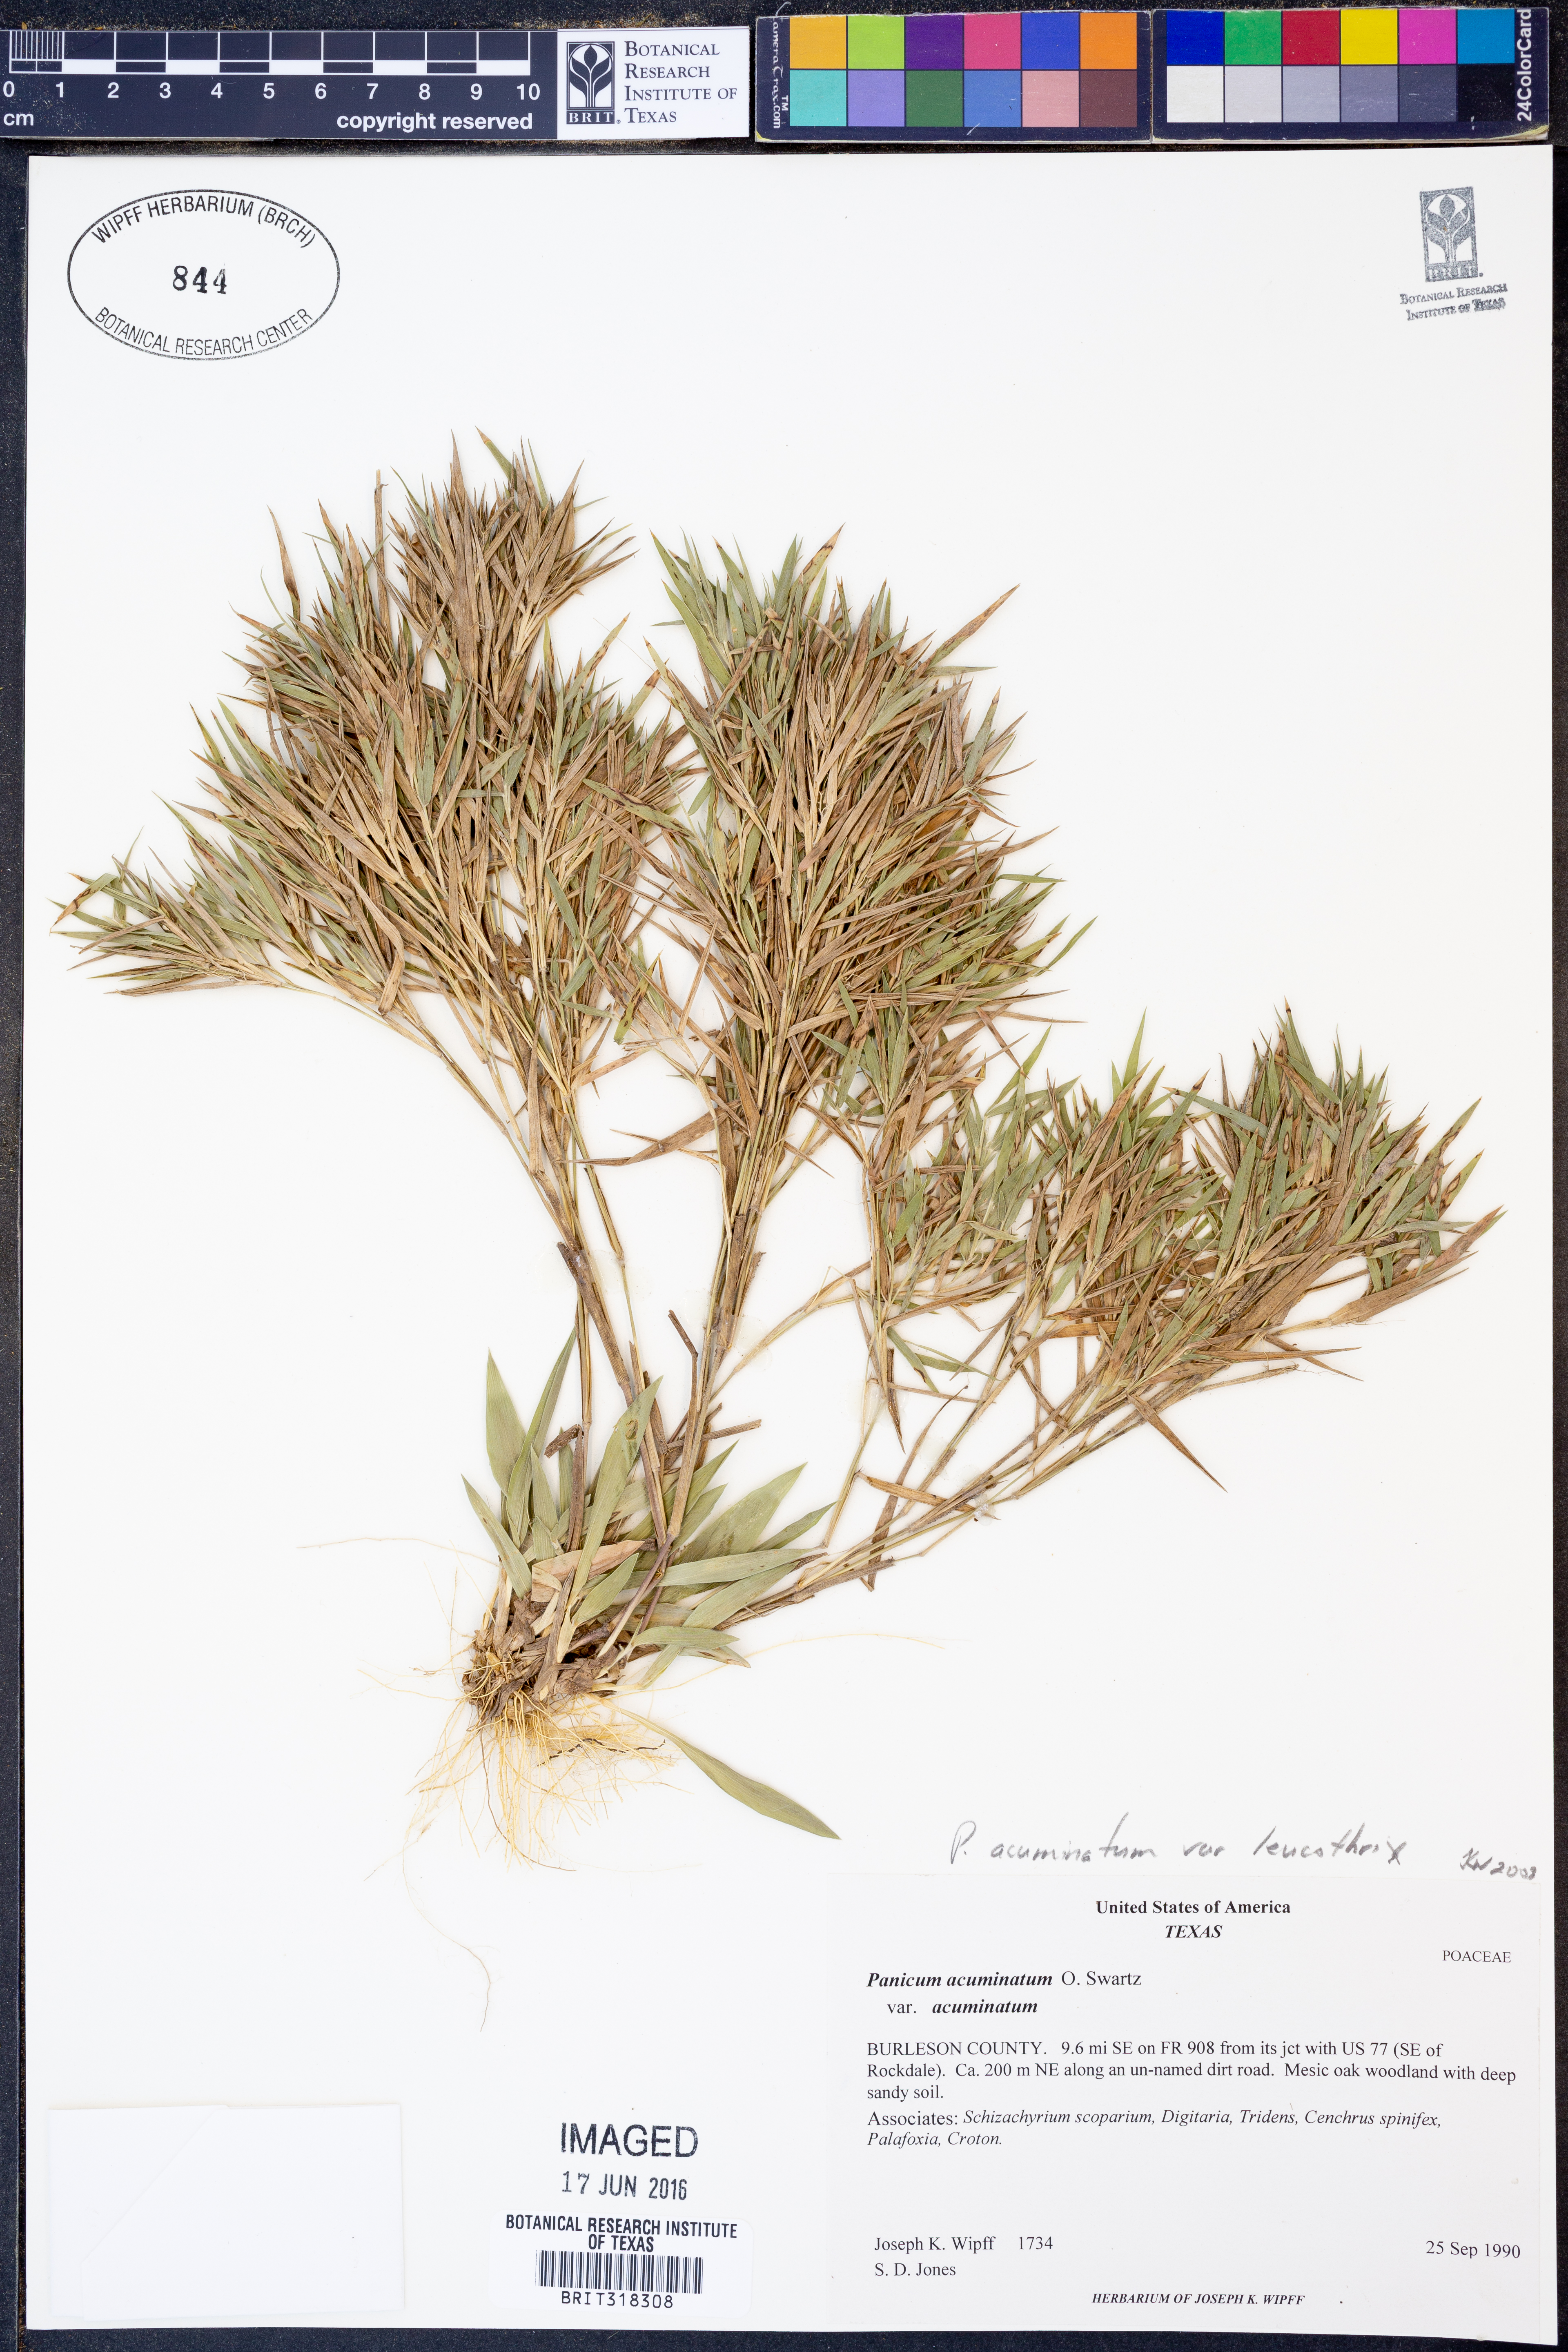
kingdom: Plantae
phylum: Tracheophyta
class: Liliopsida
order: Poales
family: Poaceae
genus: Dichanthelium
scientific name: Dichanthelium leucothrix
